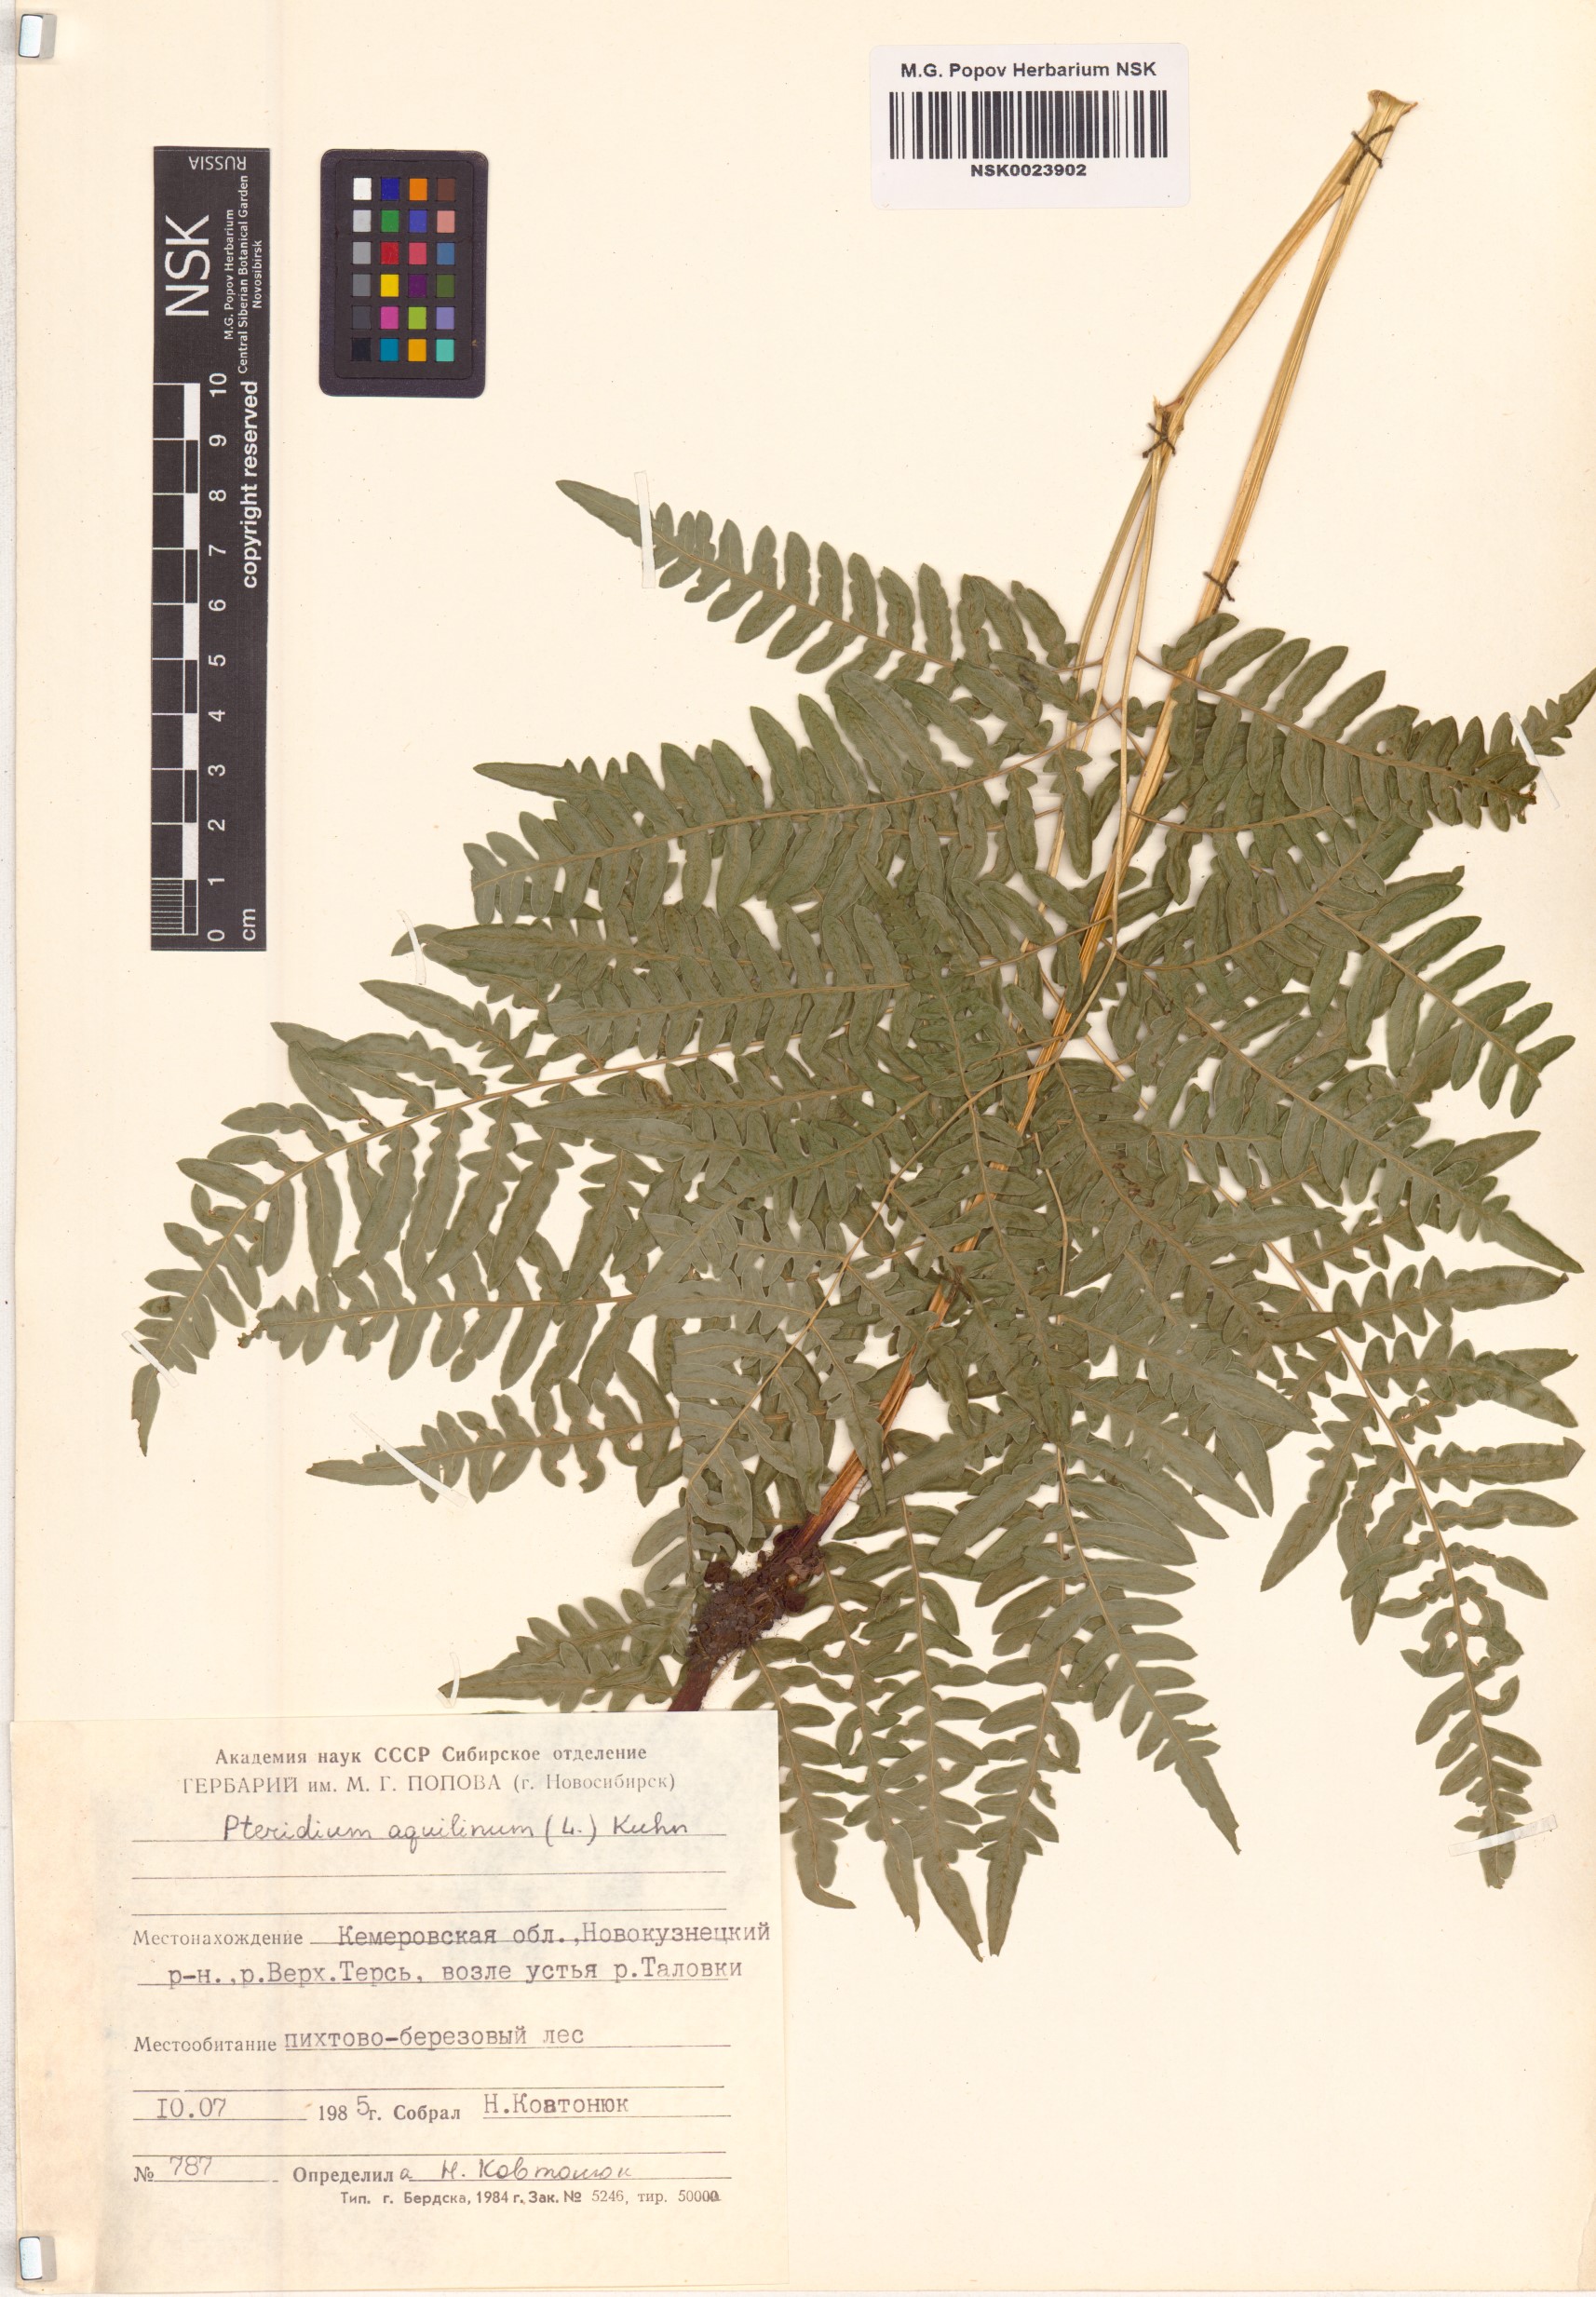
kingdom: Plantae
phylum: Tracheophyta
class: Polypodiopsida
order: Polypodiales
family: Dennstaedtiaceae
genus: Pteridium
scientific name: Pteridium aquilinum
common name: Bracken
